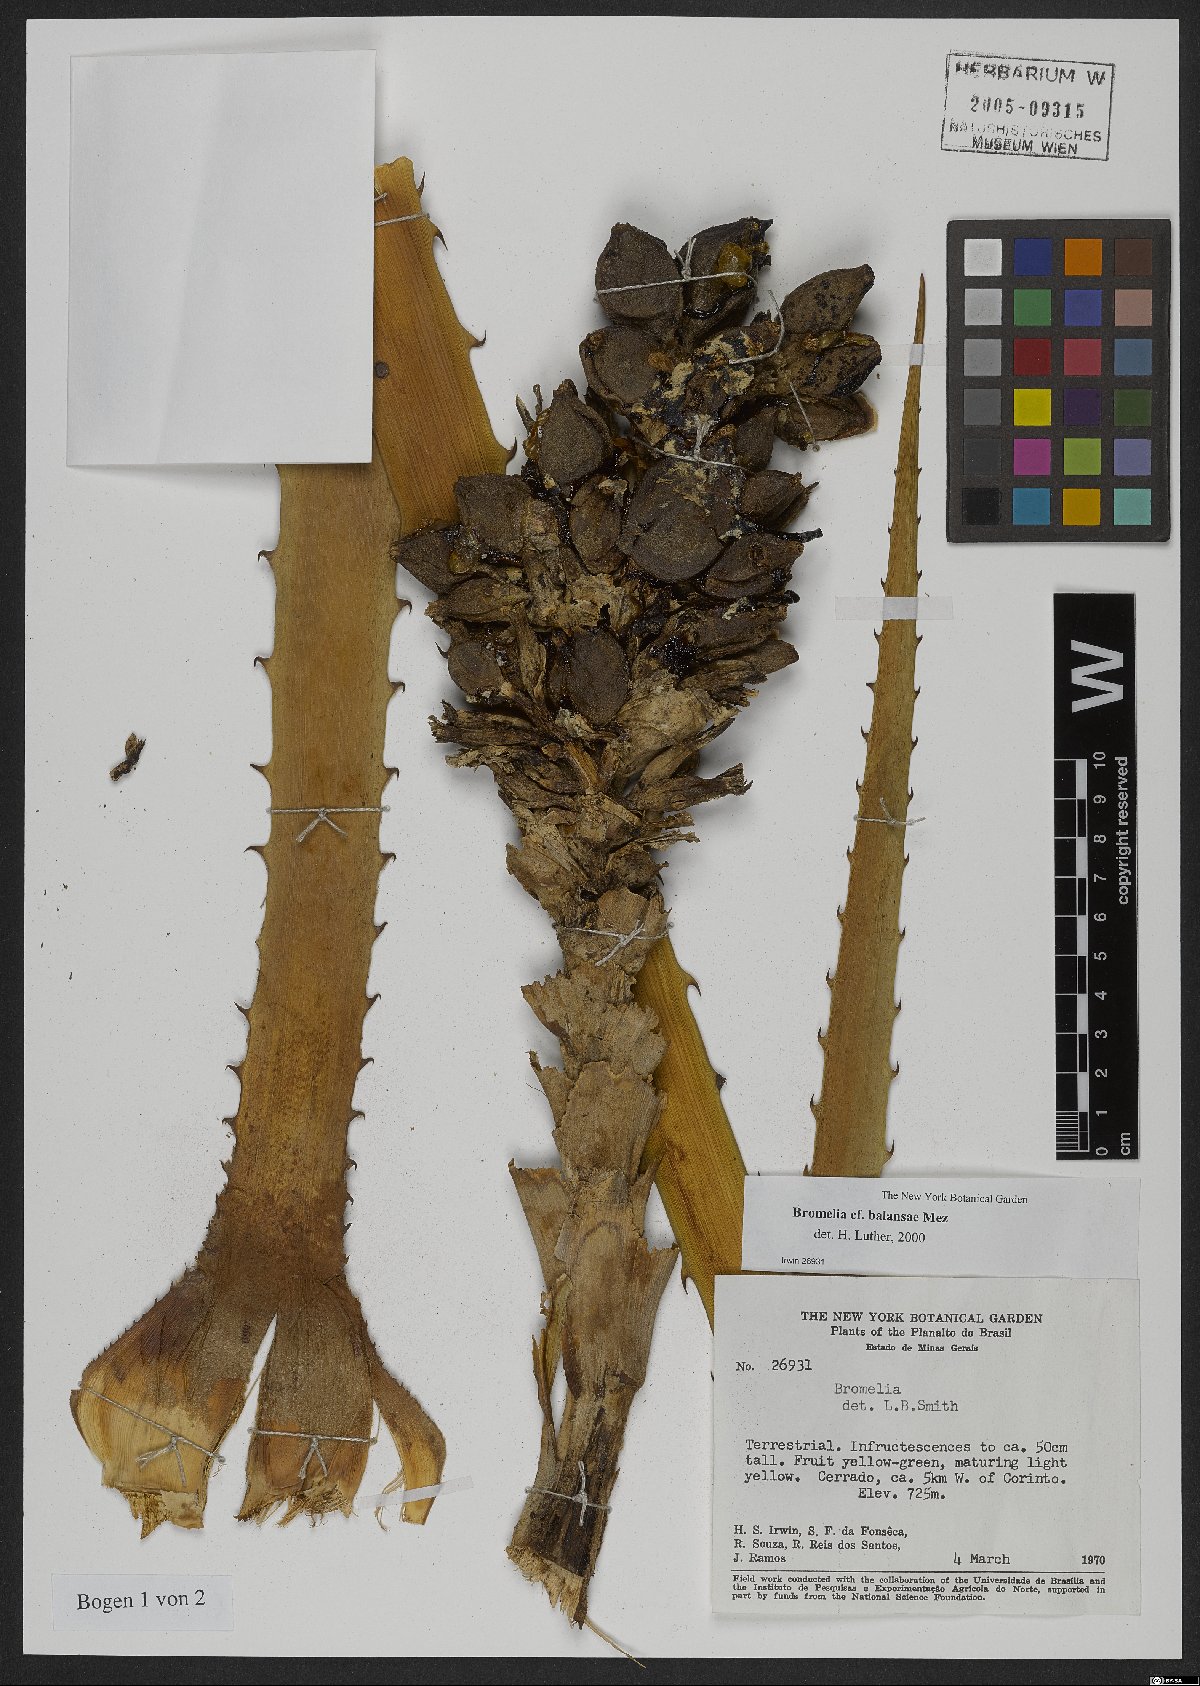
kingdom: Plantae
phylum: Tracheophyta
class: Liliopsida
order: Poales
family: Bromeliaceae
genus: Bromelia
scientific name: Bromelia balansae
